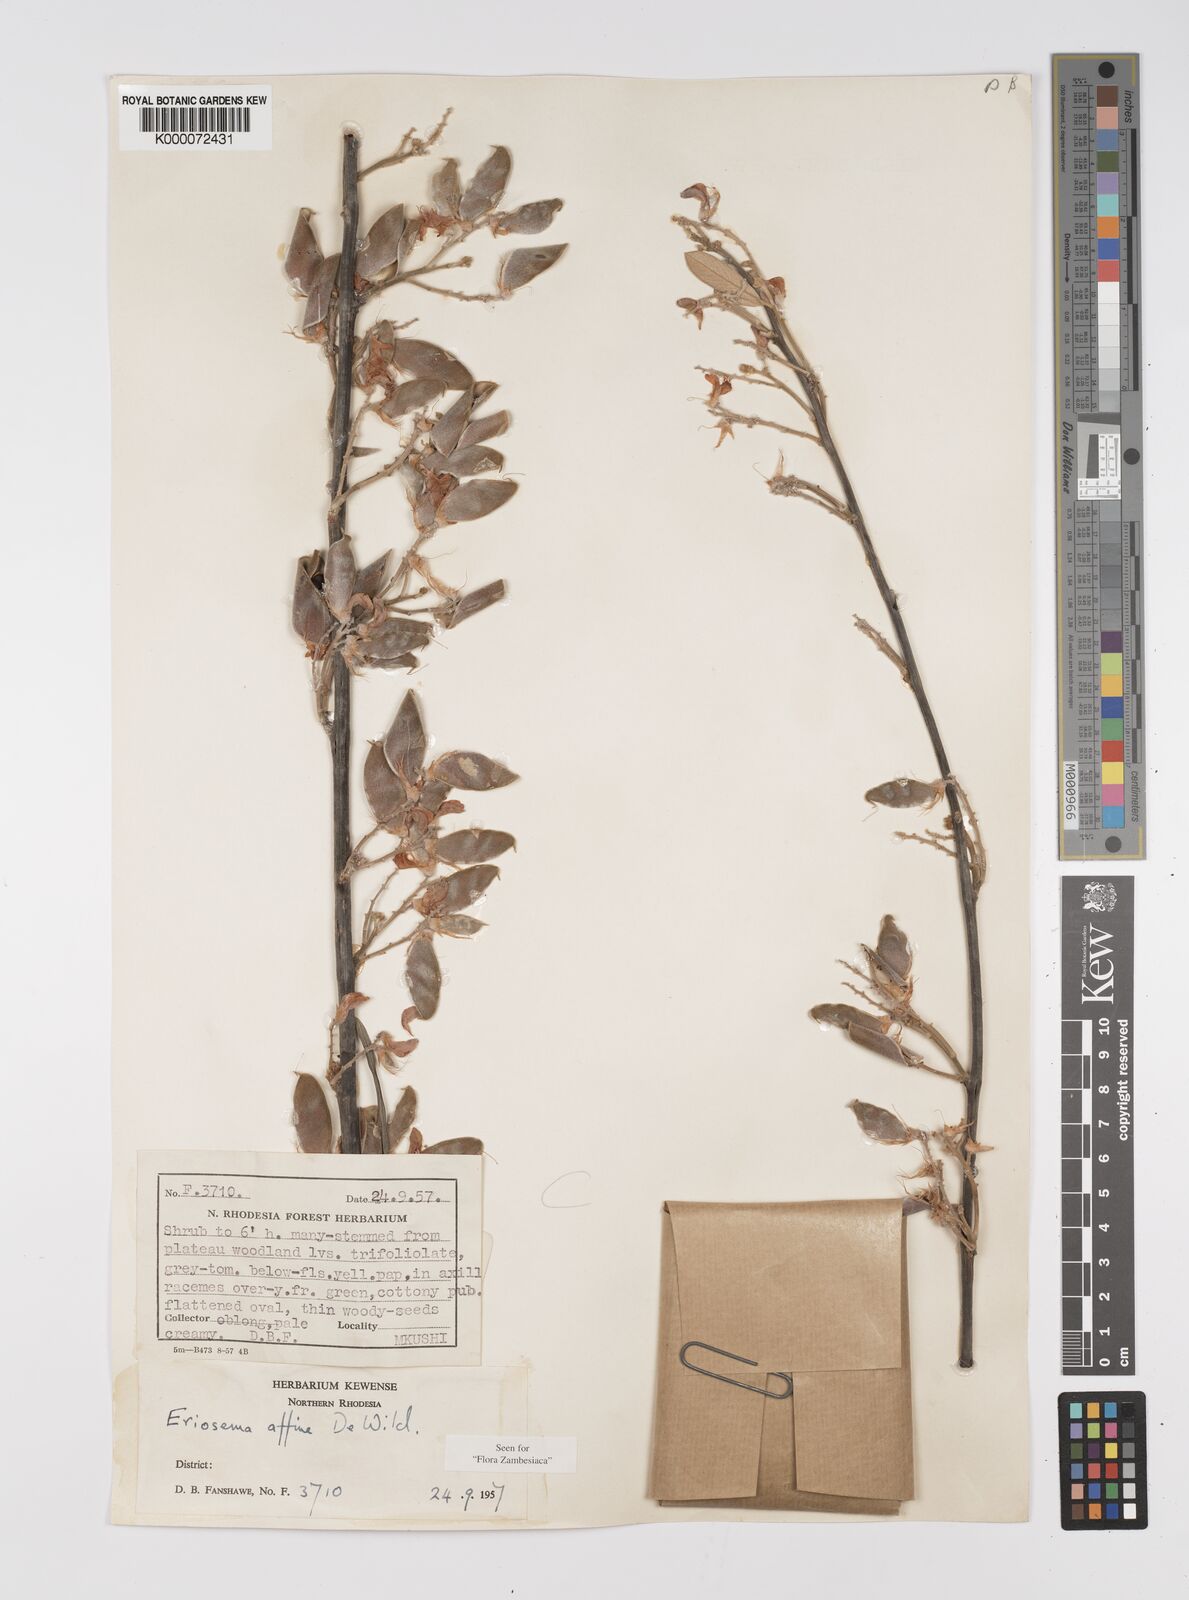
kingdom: Plantae
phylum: Tracheophyta
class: Magnoliopsida
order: Fabales
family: Fabaceae
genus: Eriosema
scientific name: Eriosema affine
